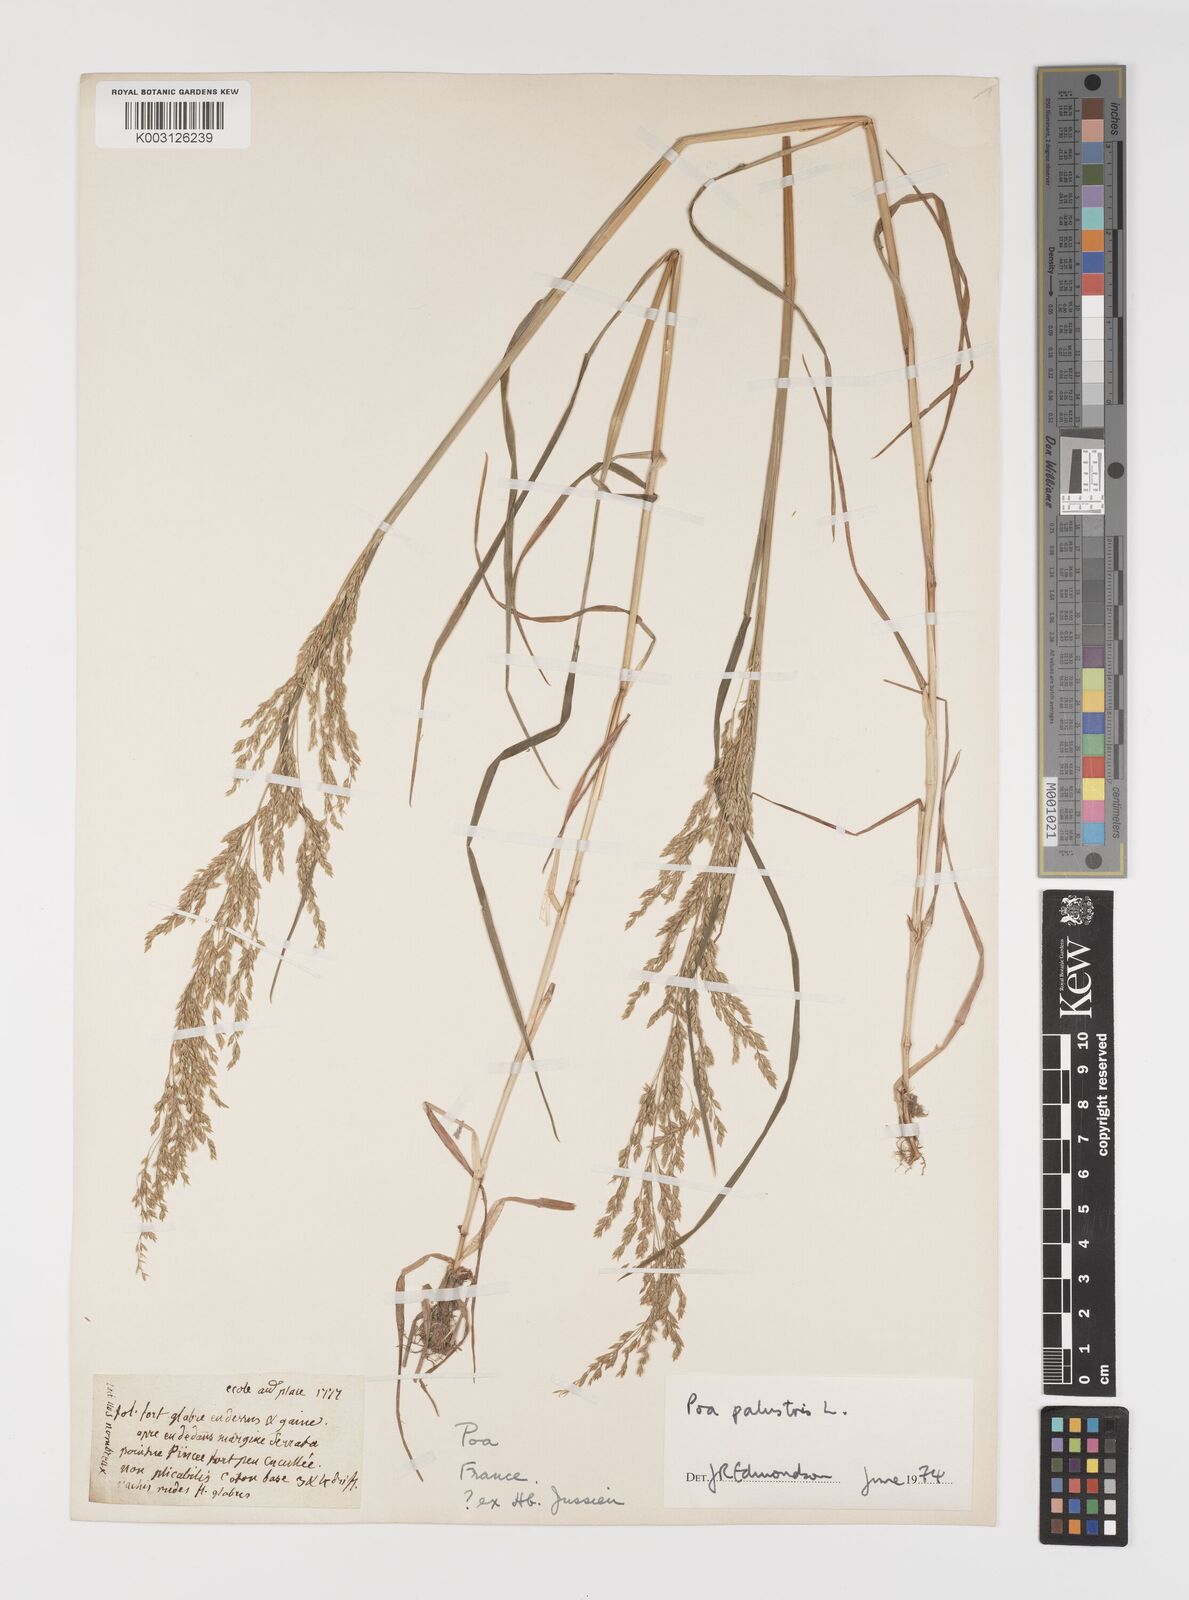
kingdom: Plantae
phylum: Tracheophyta
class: Liliopsida
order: Poales
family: Poaceae
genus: Poa
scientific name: Poa palustris
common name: Swamp meadow-grass
